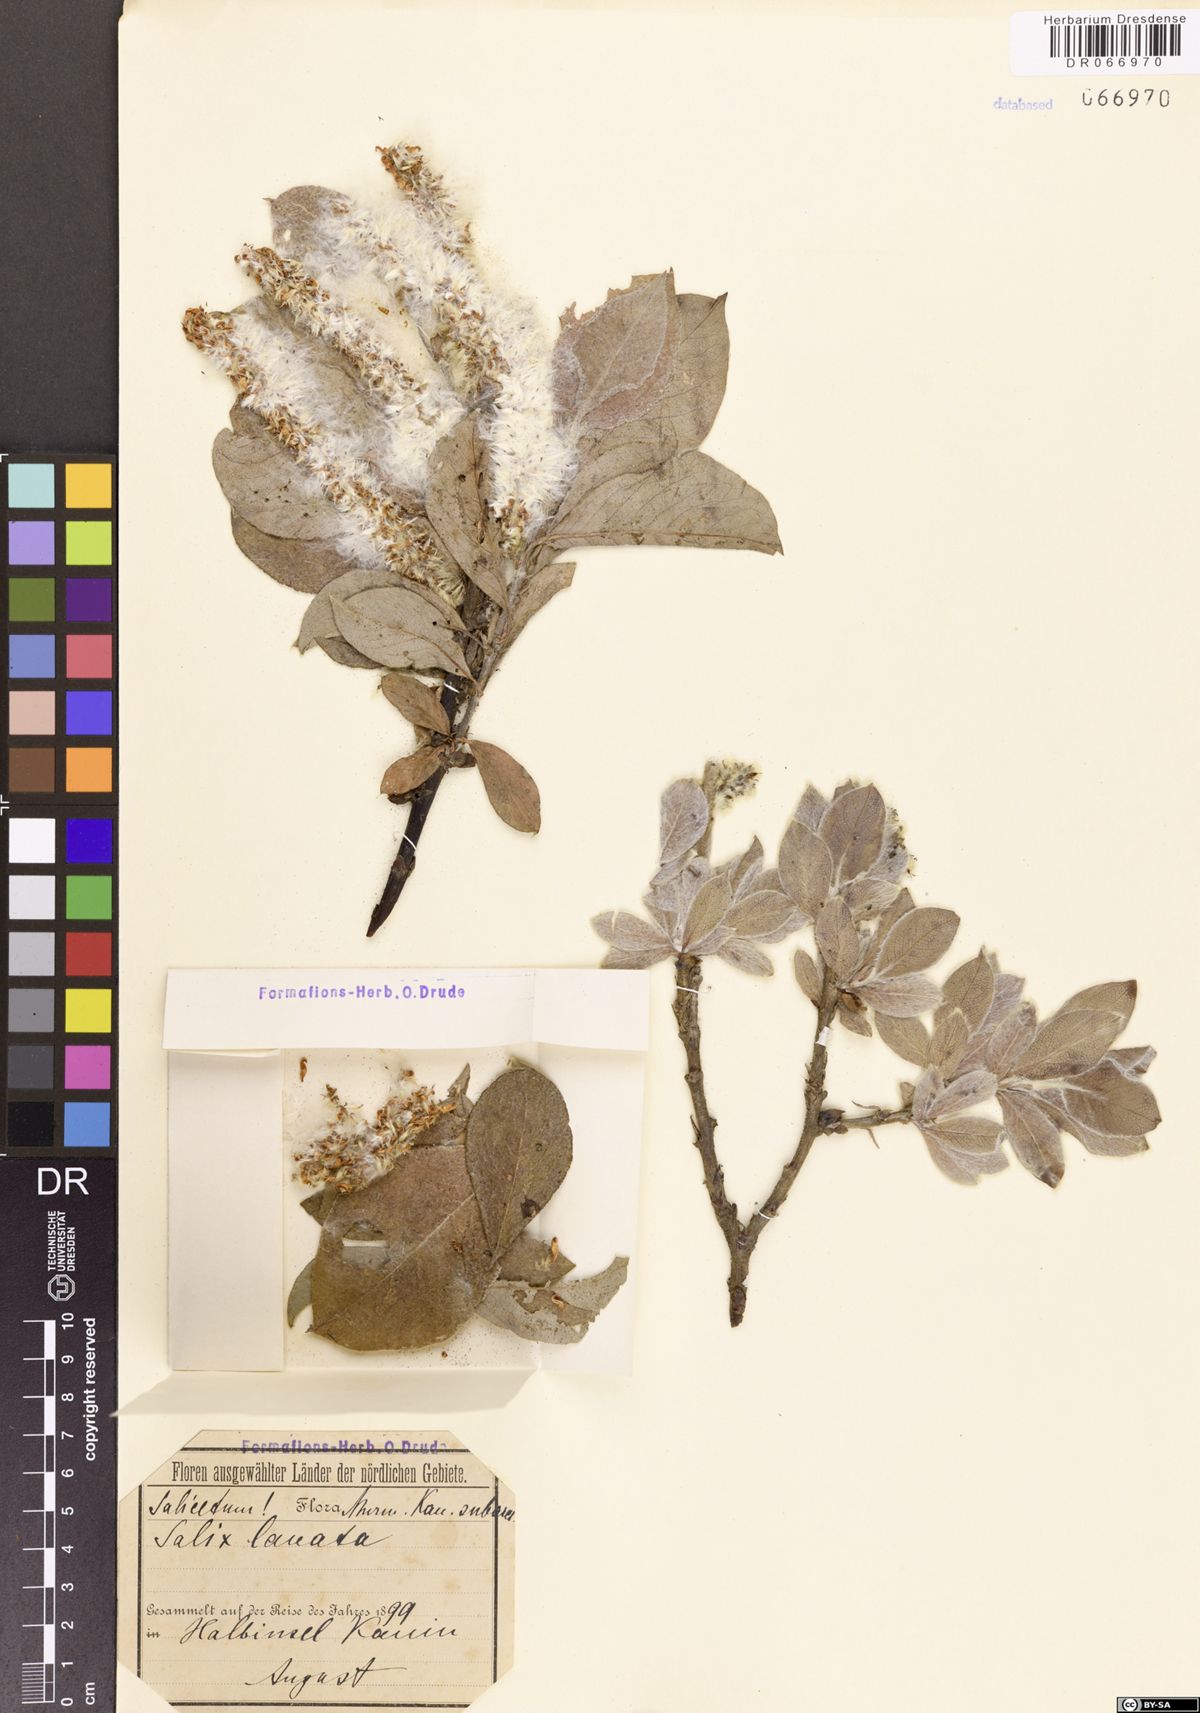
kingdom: Plantae
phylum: Tracheophyta
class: Magnoliopsida
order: Malpighiales
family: Salicaceae
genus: Salix
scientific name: Salix lanata
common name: Woolly willow
